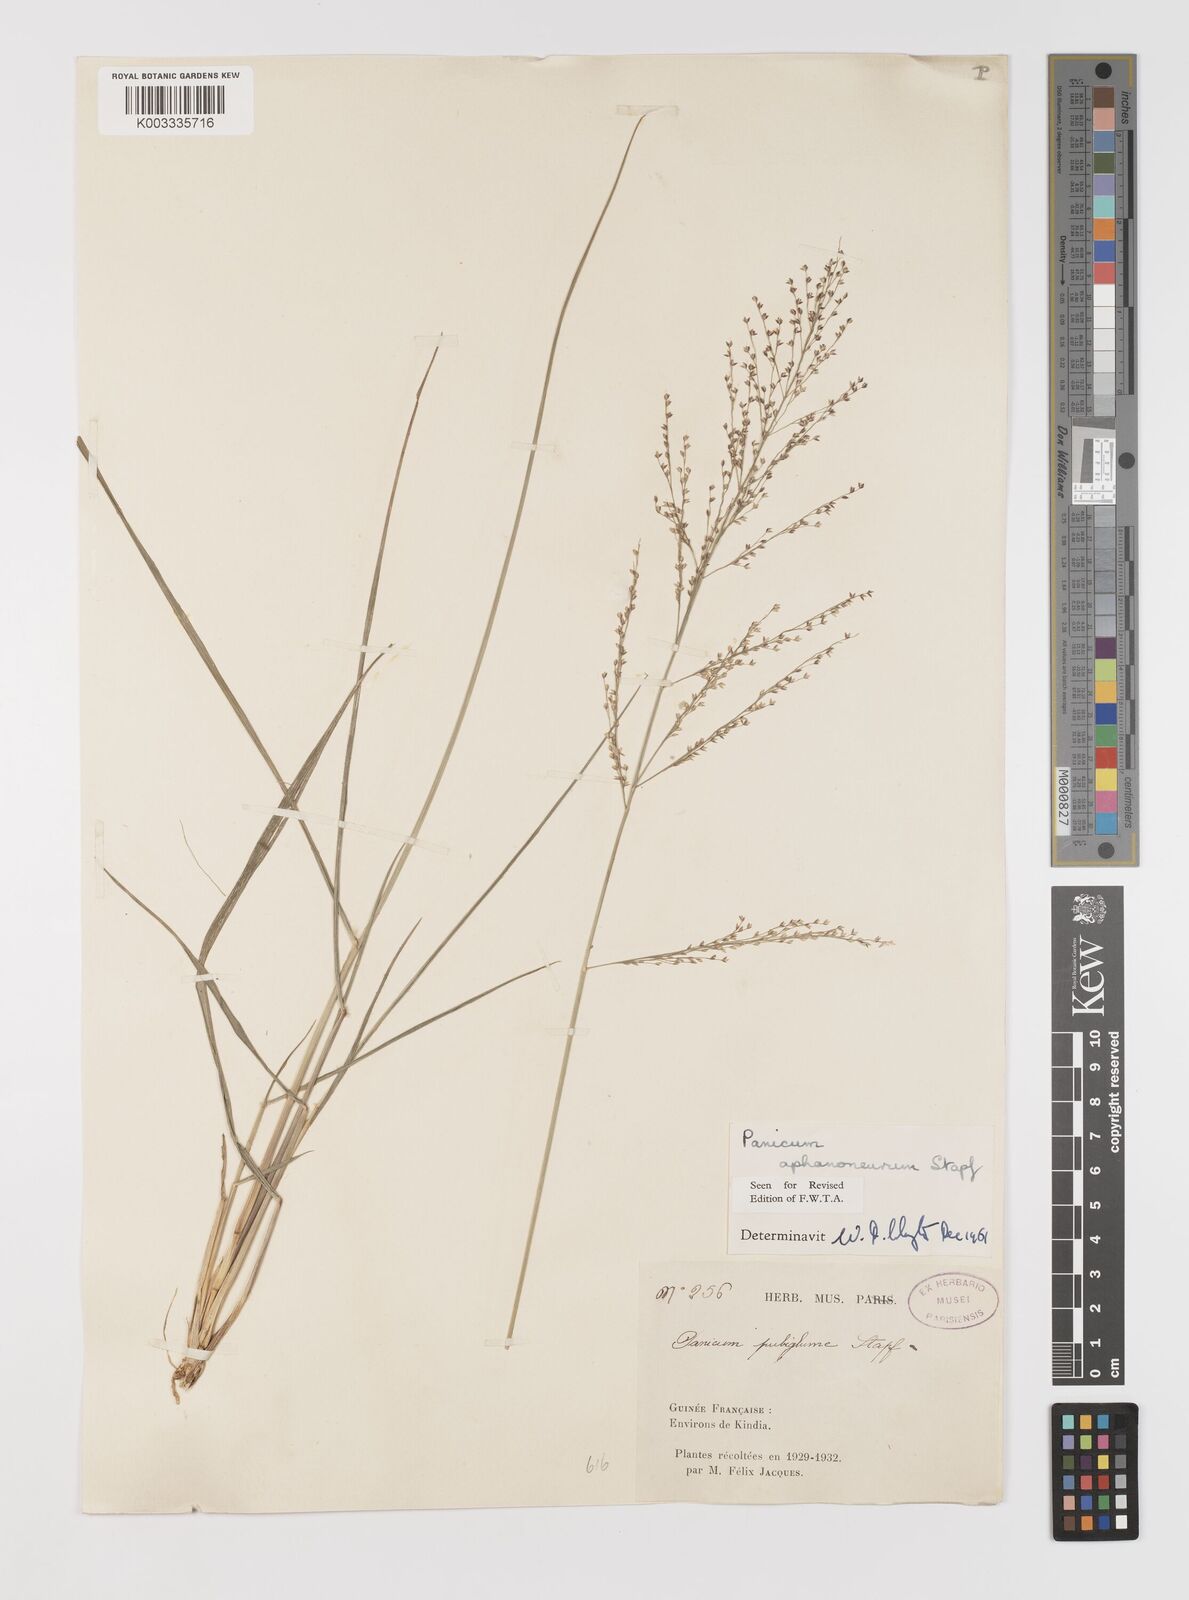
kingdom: Plantae
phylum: Tracheophyta
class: Liliopsida
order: Poales
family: Poaceae
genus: Panicum
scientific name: Panicum fluviicola
